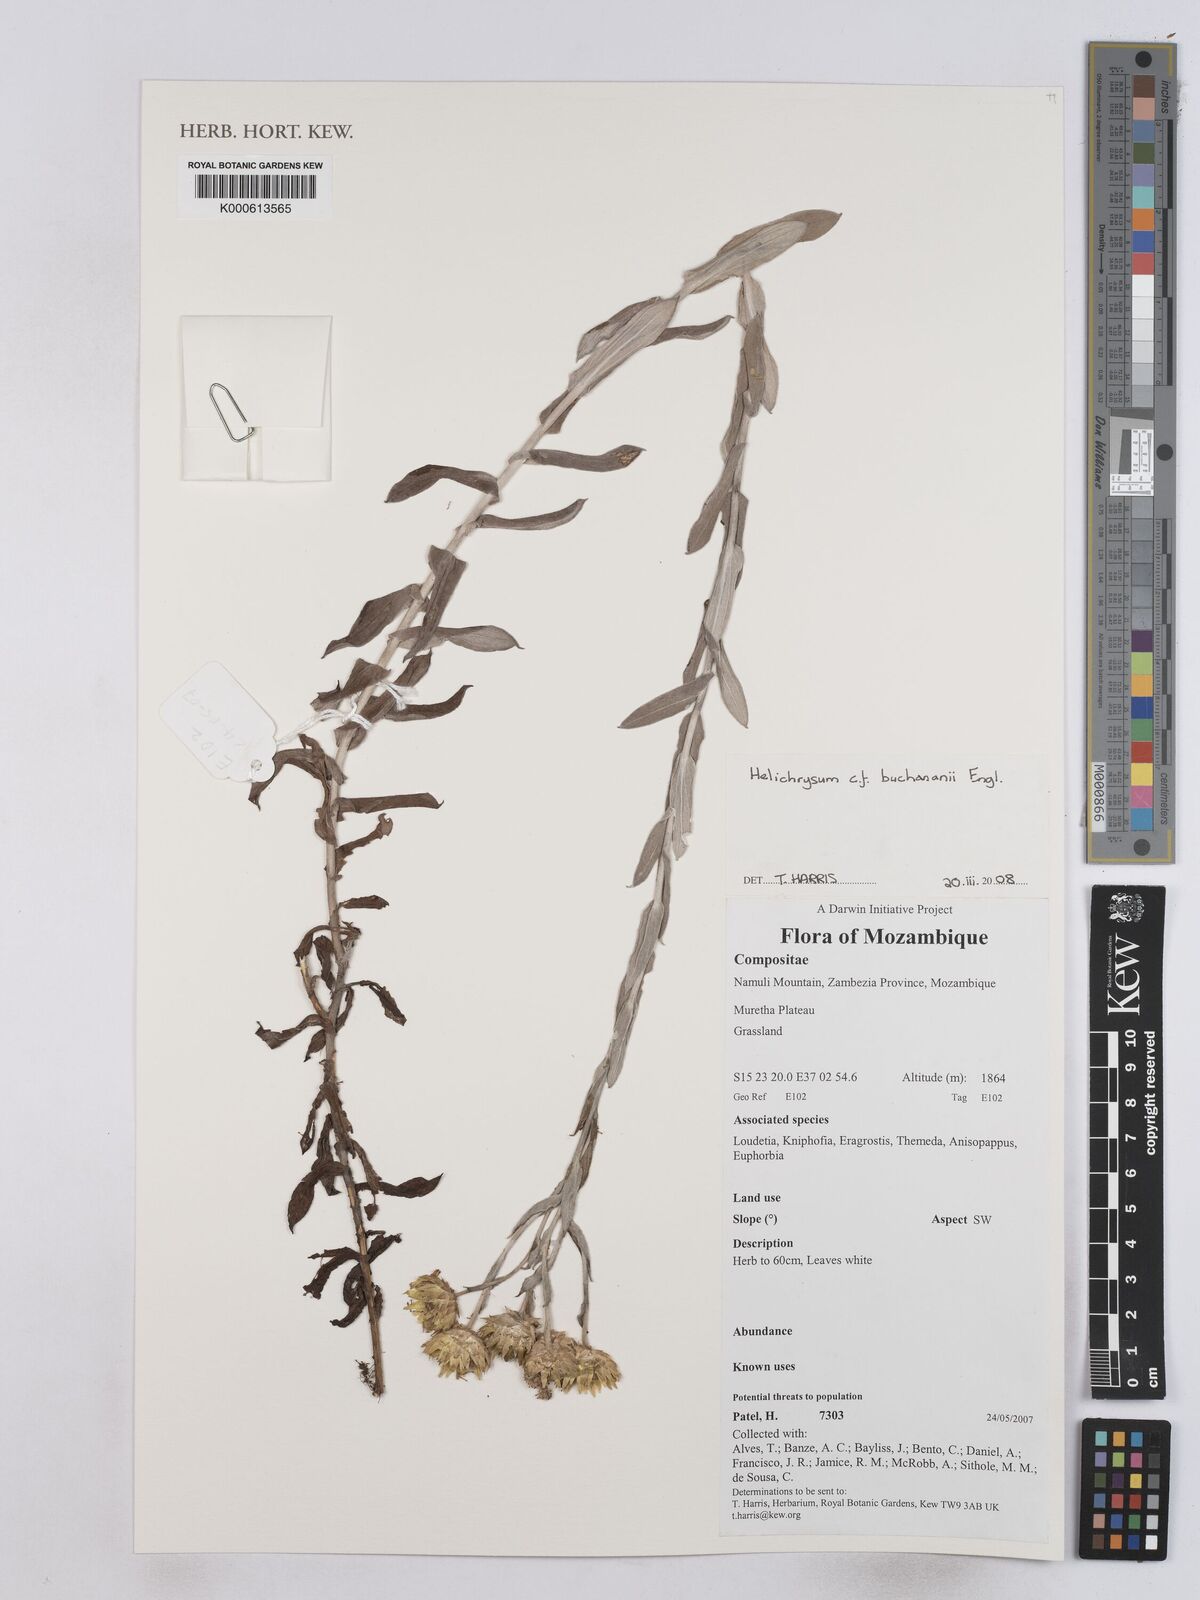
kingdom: Plantae
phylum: Tracheophyta
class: Magnoliopsida
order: Asterales
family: Asteraceae
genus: Helichrysum
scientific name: Helichrysum buchananii
